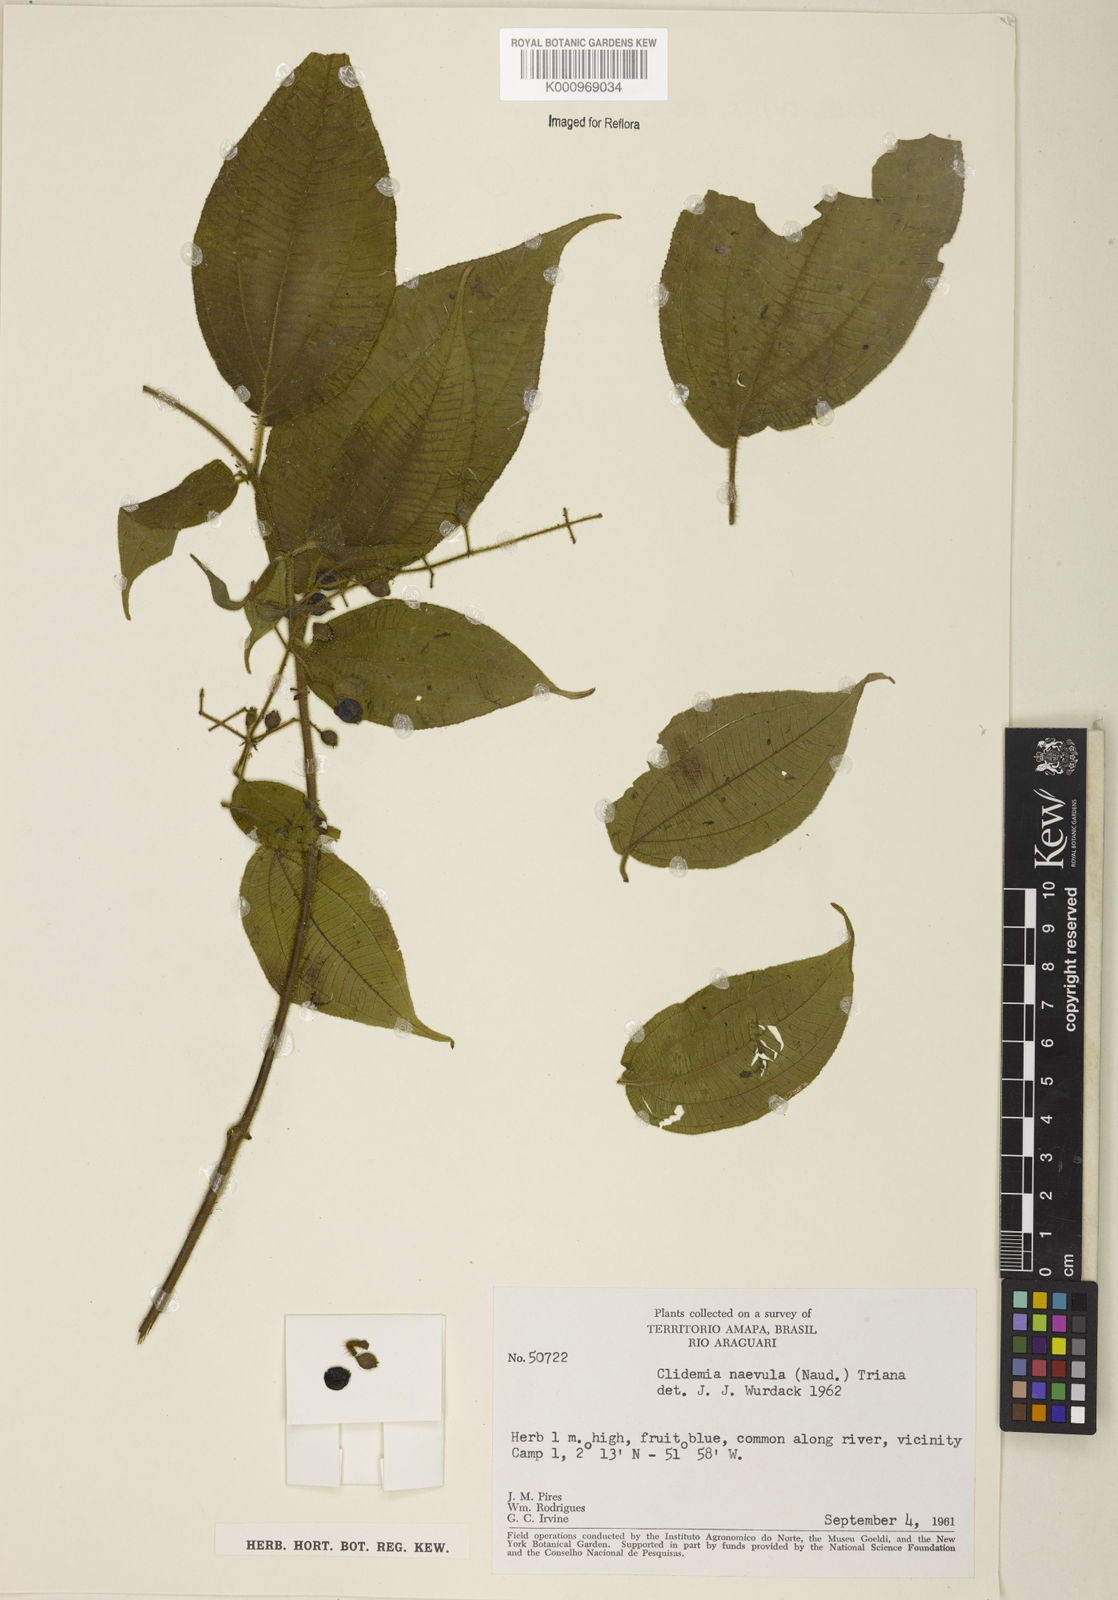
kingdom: Plantae
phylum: Tracheophyta
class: Magnoliopsida
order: Myrtales
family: Melastomataceae
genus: Miconia
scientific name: Miconia heteroclita
